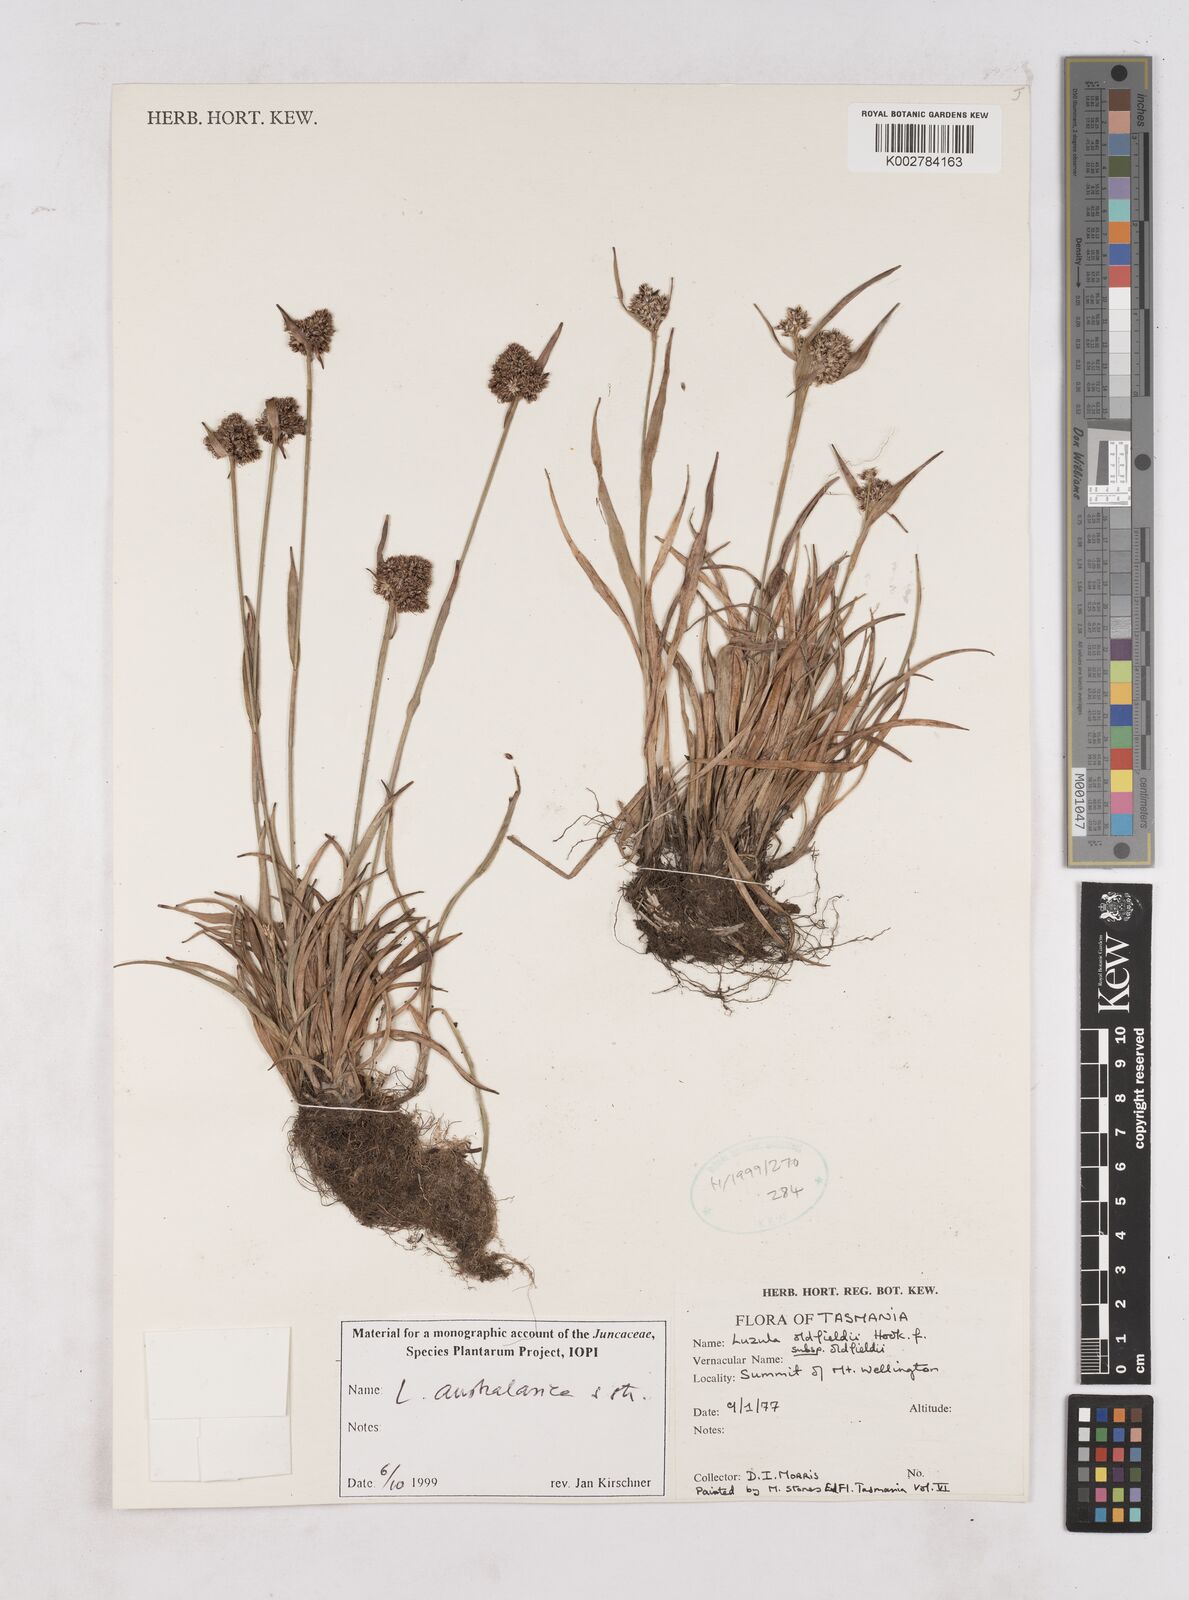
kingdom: Plantae
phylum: Tracheophyta
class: Liliopsida
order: Poales
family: Juncaceae
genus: Luzula
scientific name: Luzula australasica
